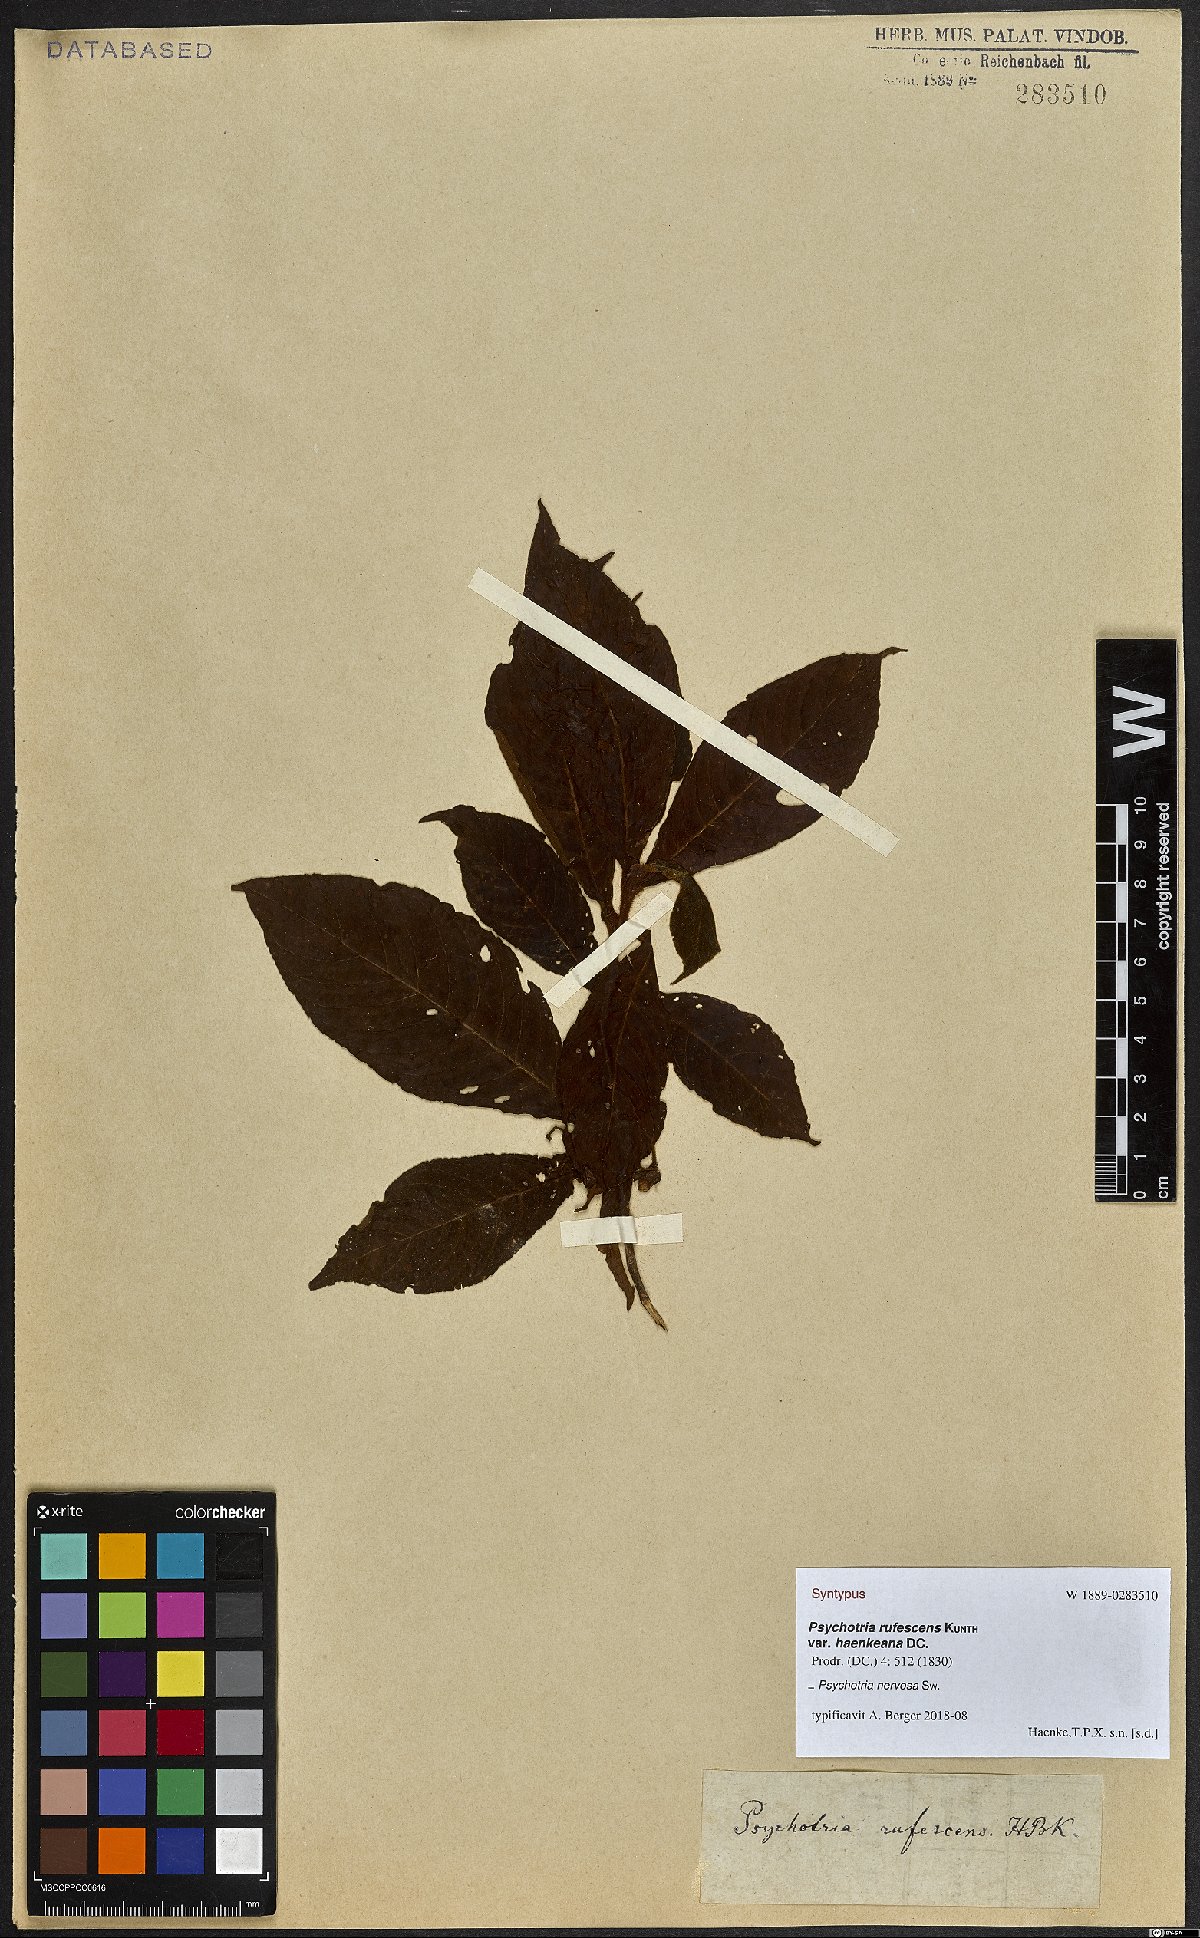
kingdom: Plantae
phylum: Tracheophyta
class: Magnoliopsida
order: Gentianales
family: Rubiaceae
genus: Psychotria
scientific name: Psychotria nervosa
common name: Bastard cankerberry
